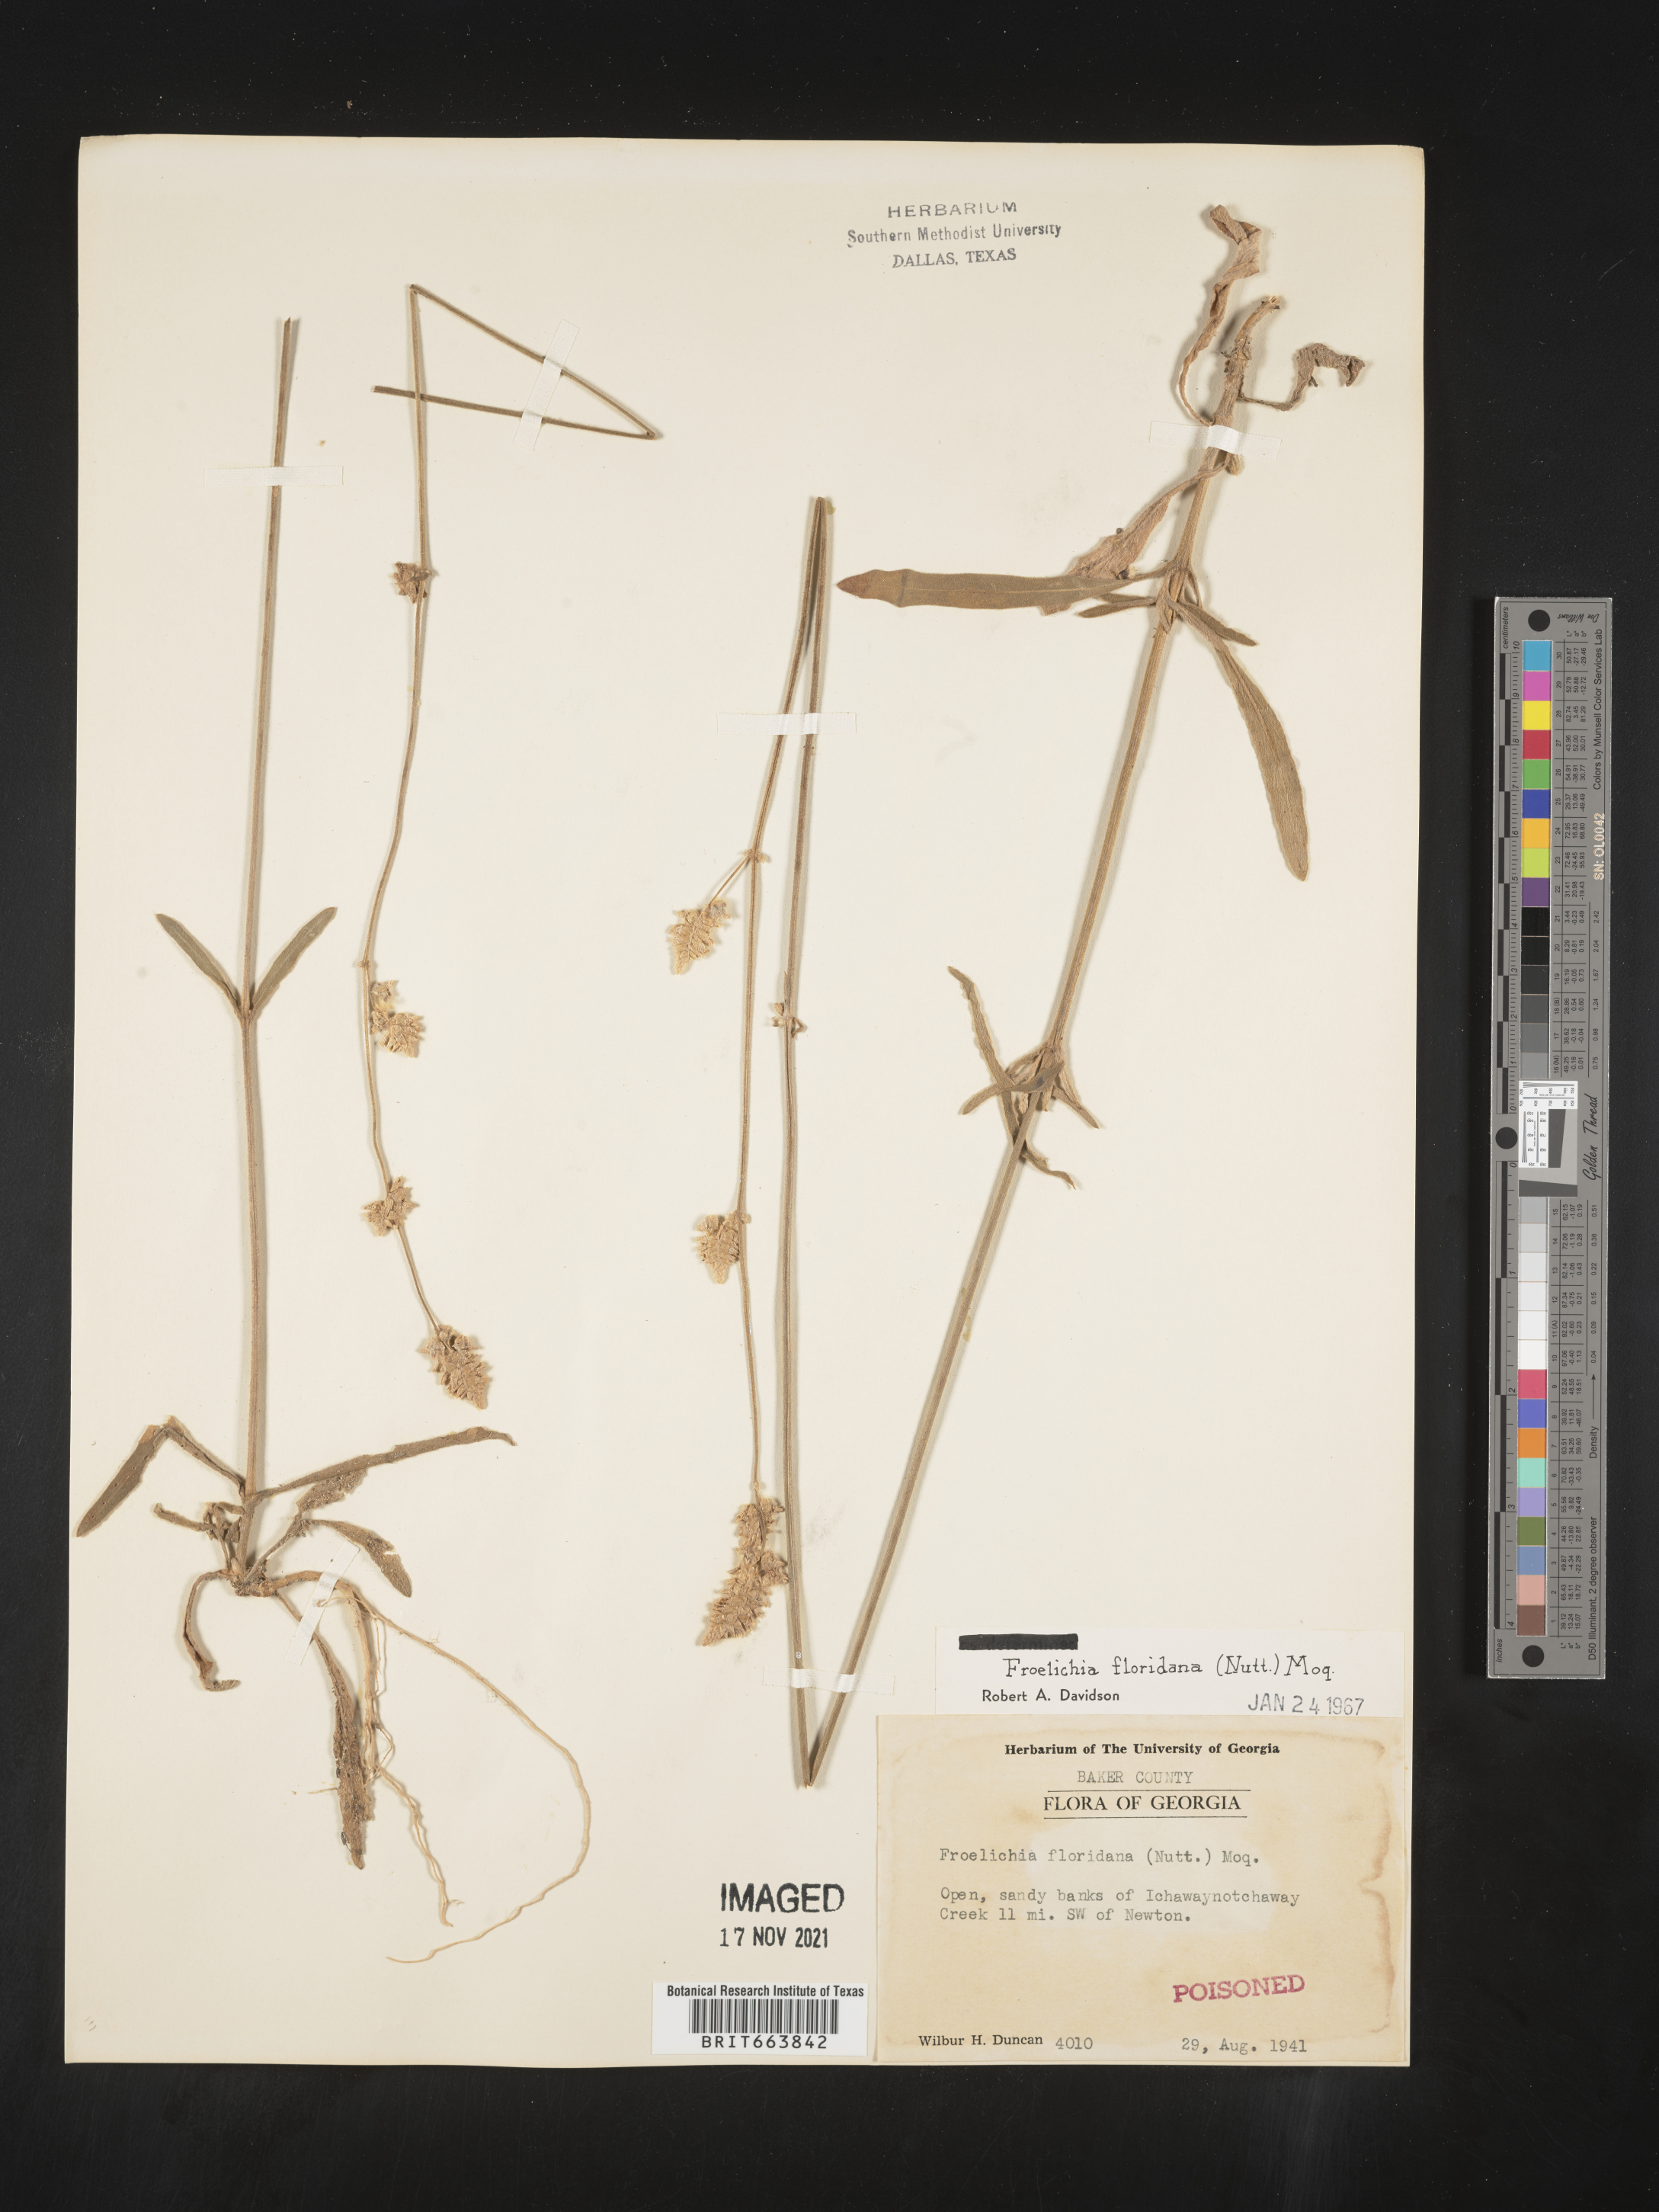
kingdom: Plantae
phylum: Tracheophyta
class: Magnoliopsida
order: Caryophyllales
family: Amaranthaceae
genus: Froelichia
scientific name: Froelichia floridana
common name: Florida snake-cotton
